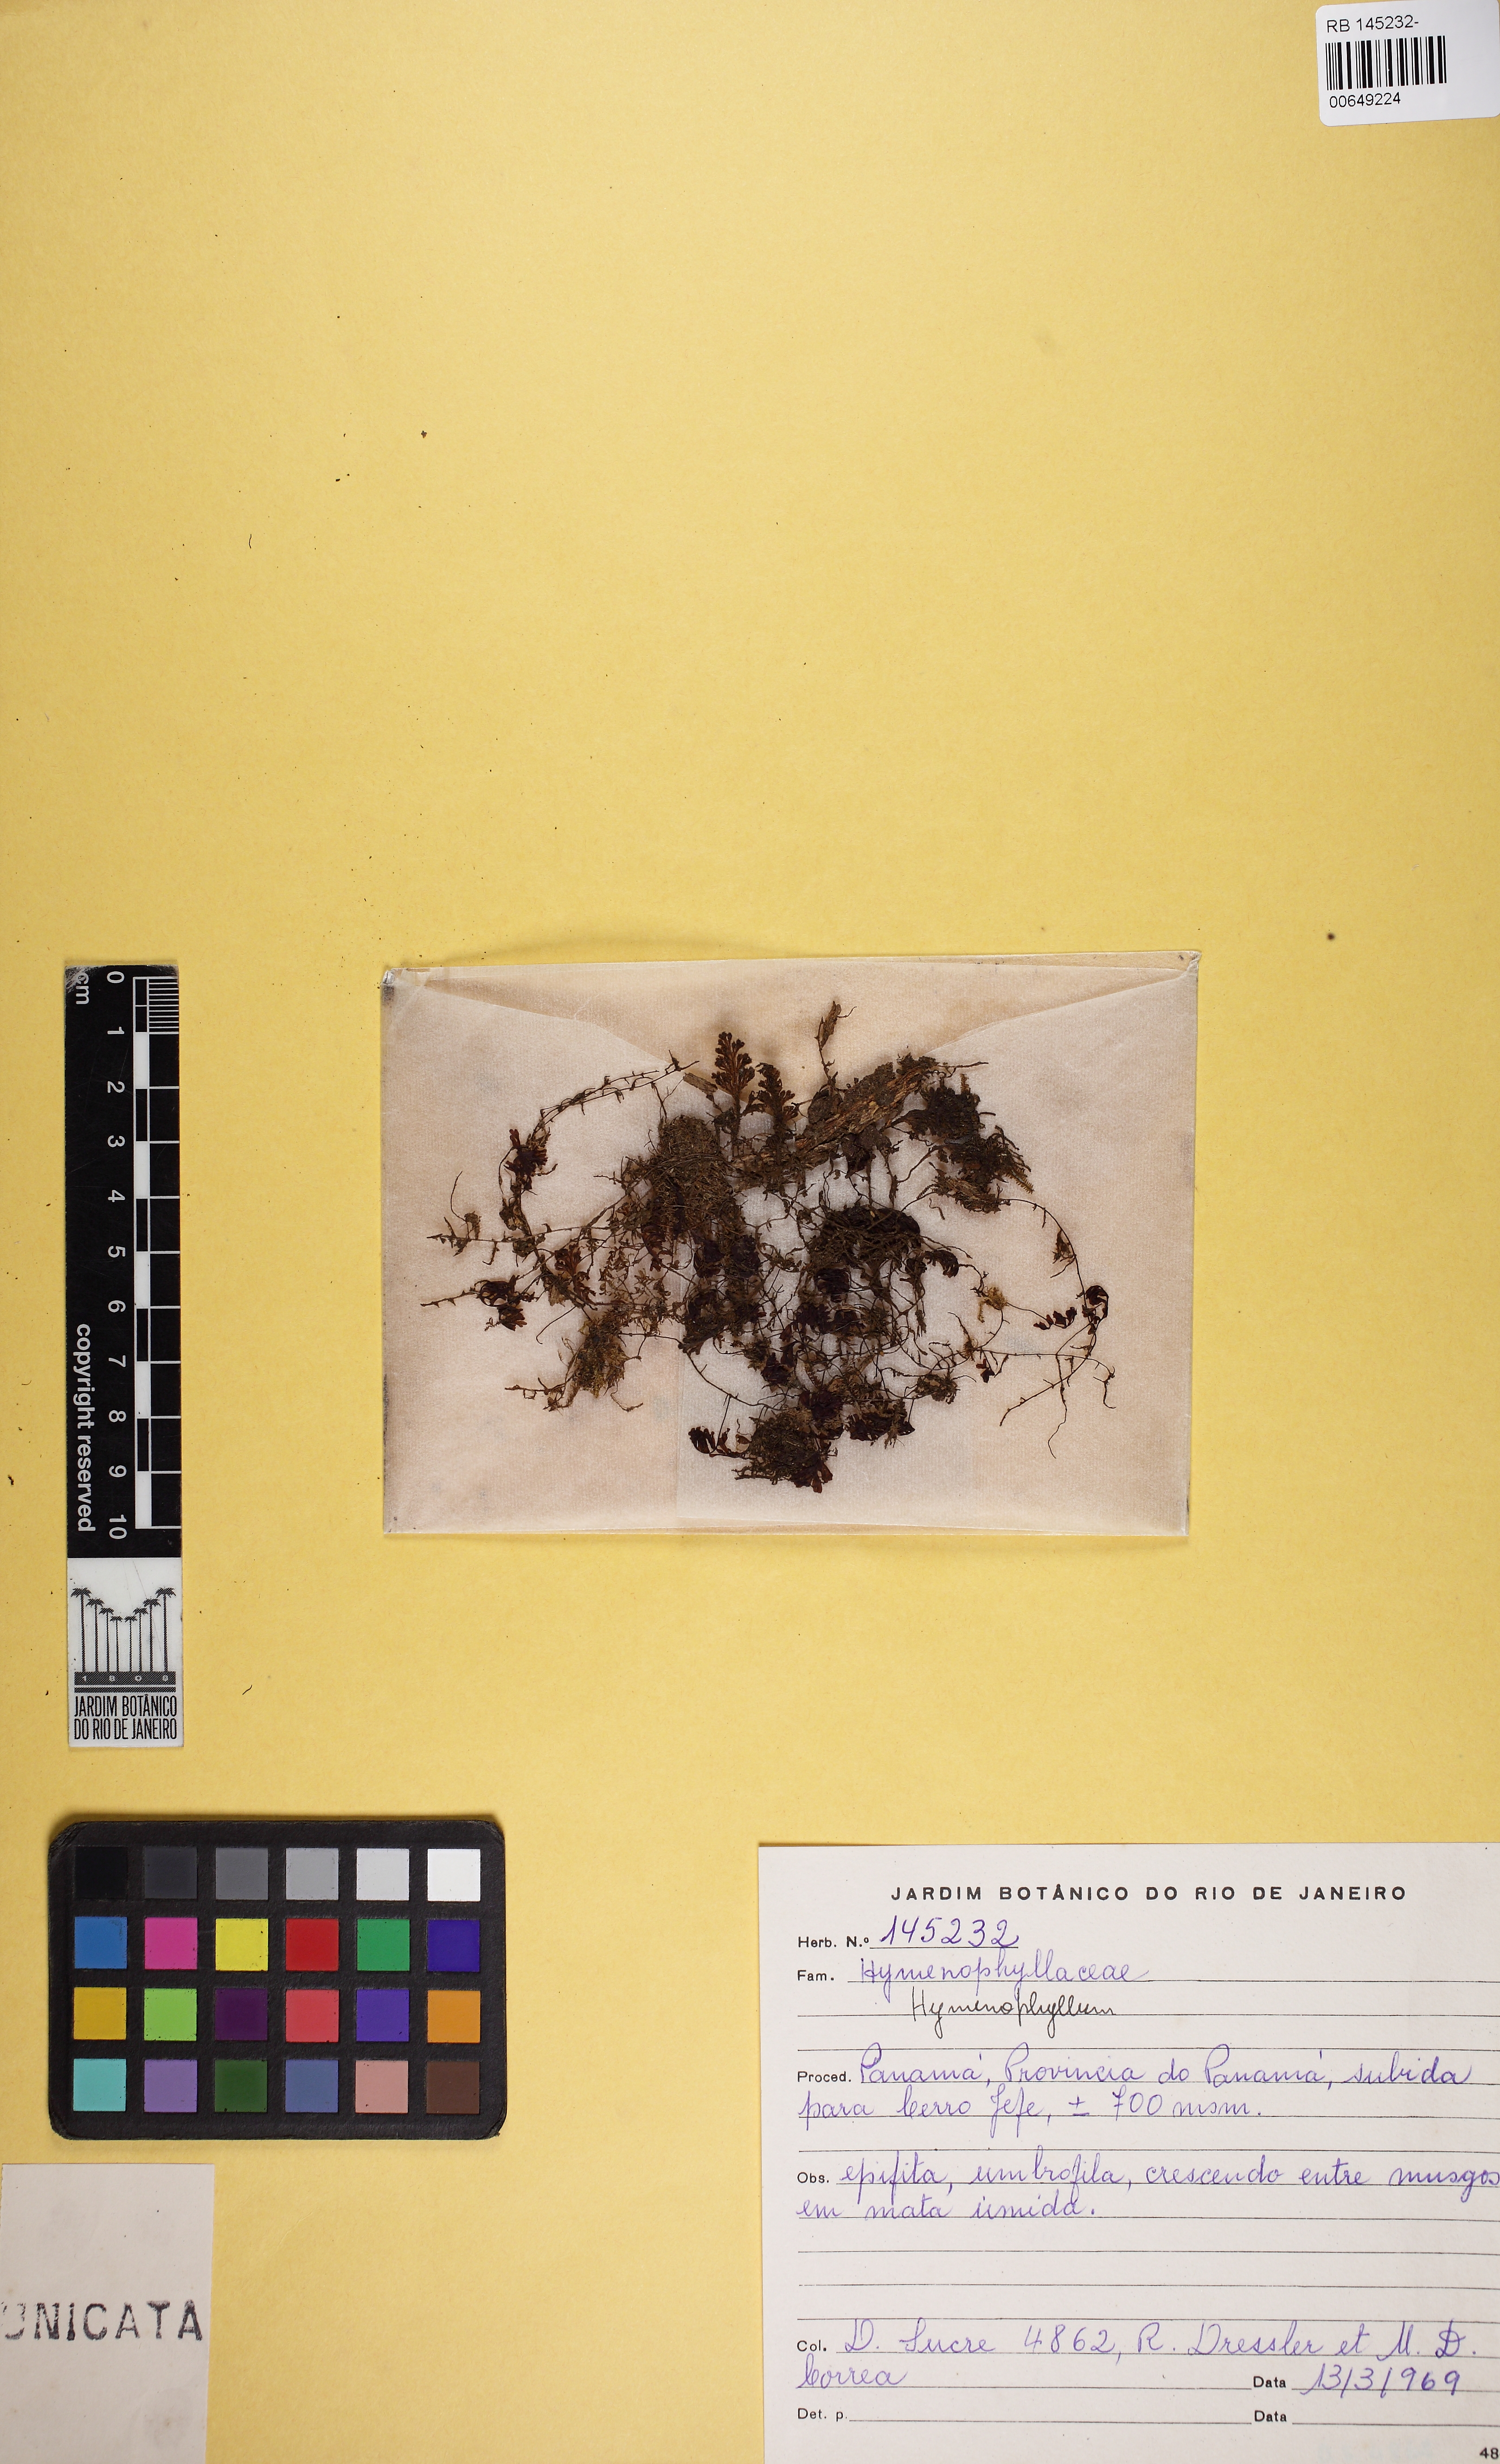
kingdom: Plantae
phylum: Tracheophyta
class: Polypodiopsida
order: Hymenophyllales
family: Hymenophyllaceae
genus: Hymenophyllum
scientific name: Hymenophyllum hirsutum
